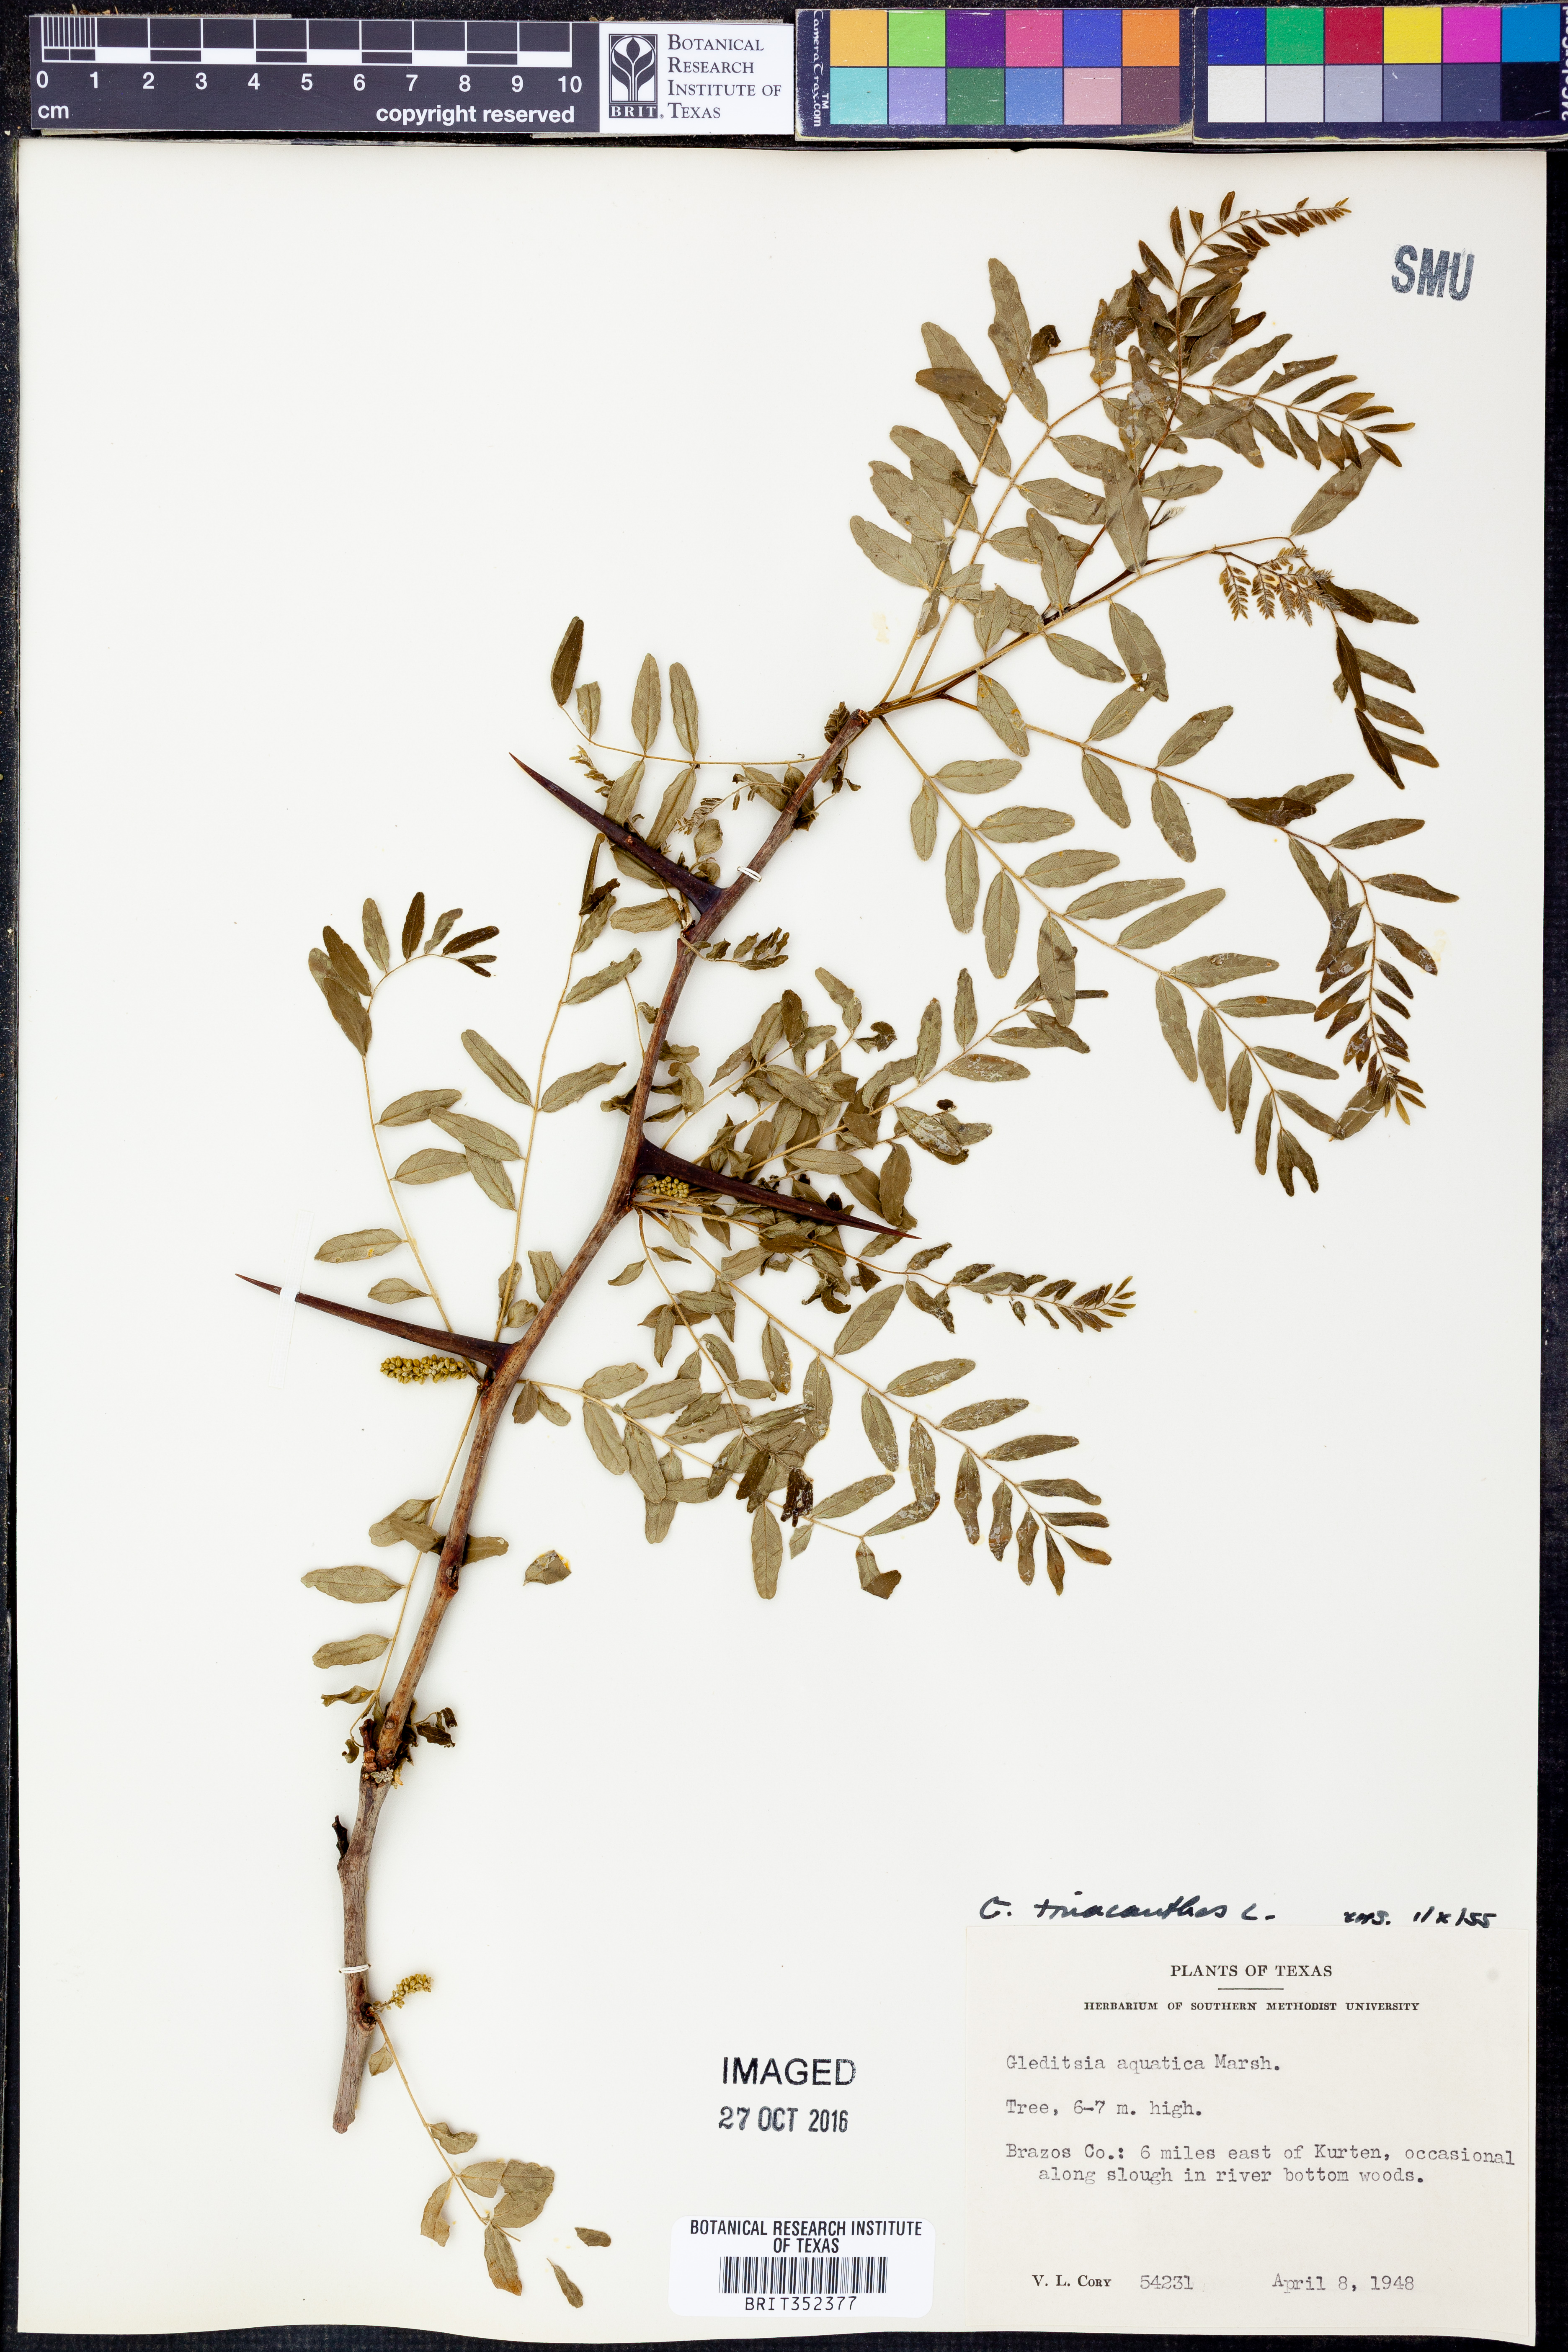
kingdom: Plantae
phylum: Tracheophyta
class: Magnoliopsida
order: Fabales
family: Fabaceae
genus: Gleditsia
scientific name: Gleditsia triacanthos
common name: Common honeylocust
